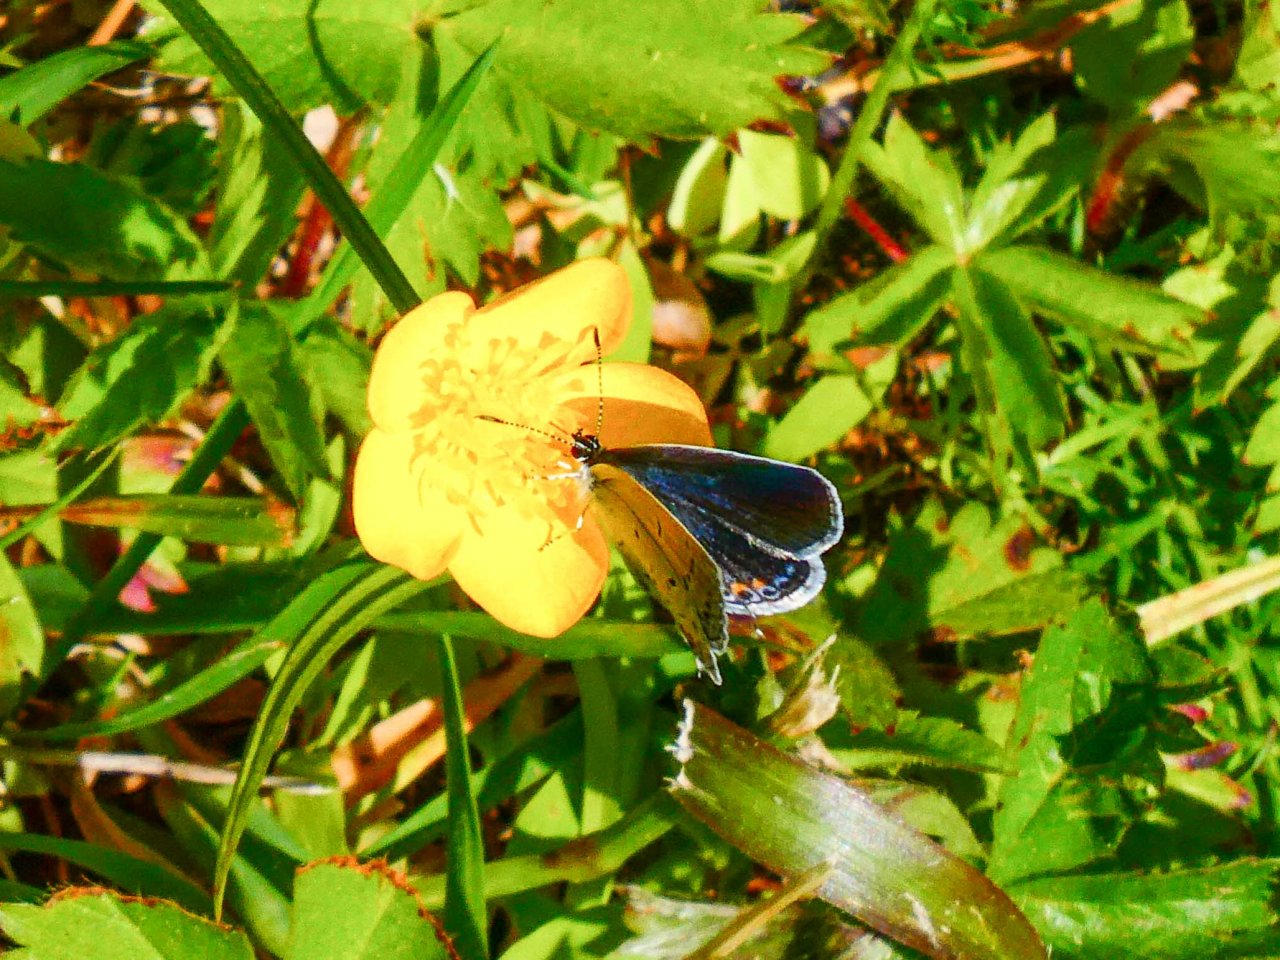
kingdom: Animalia
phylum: Arthropoda
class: Insecta
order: Lepidoptera
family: Lycaenidae
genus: Elkalyce
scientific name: Elkalyce comyntas
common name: Eastern Tailed-Blue
